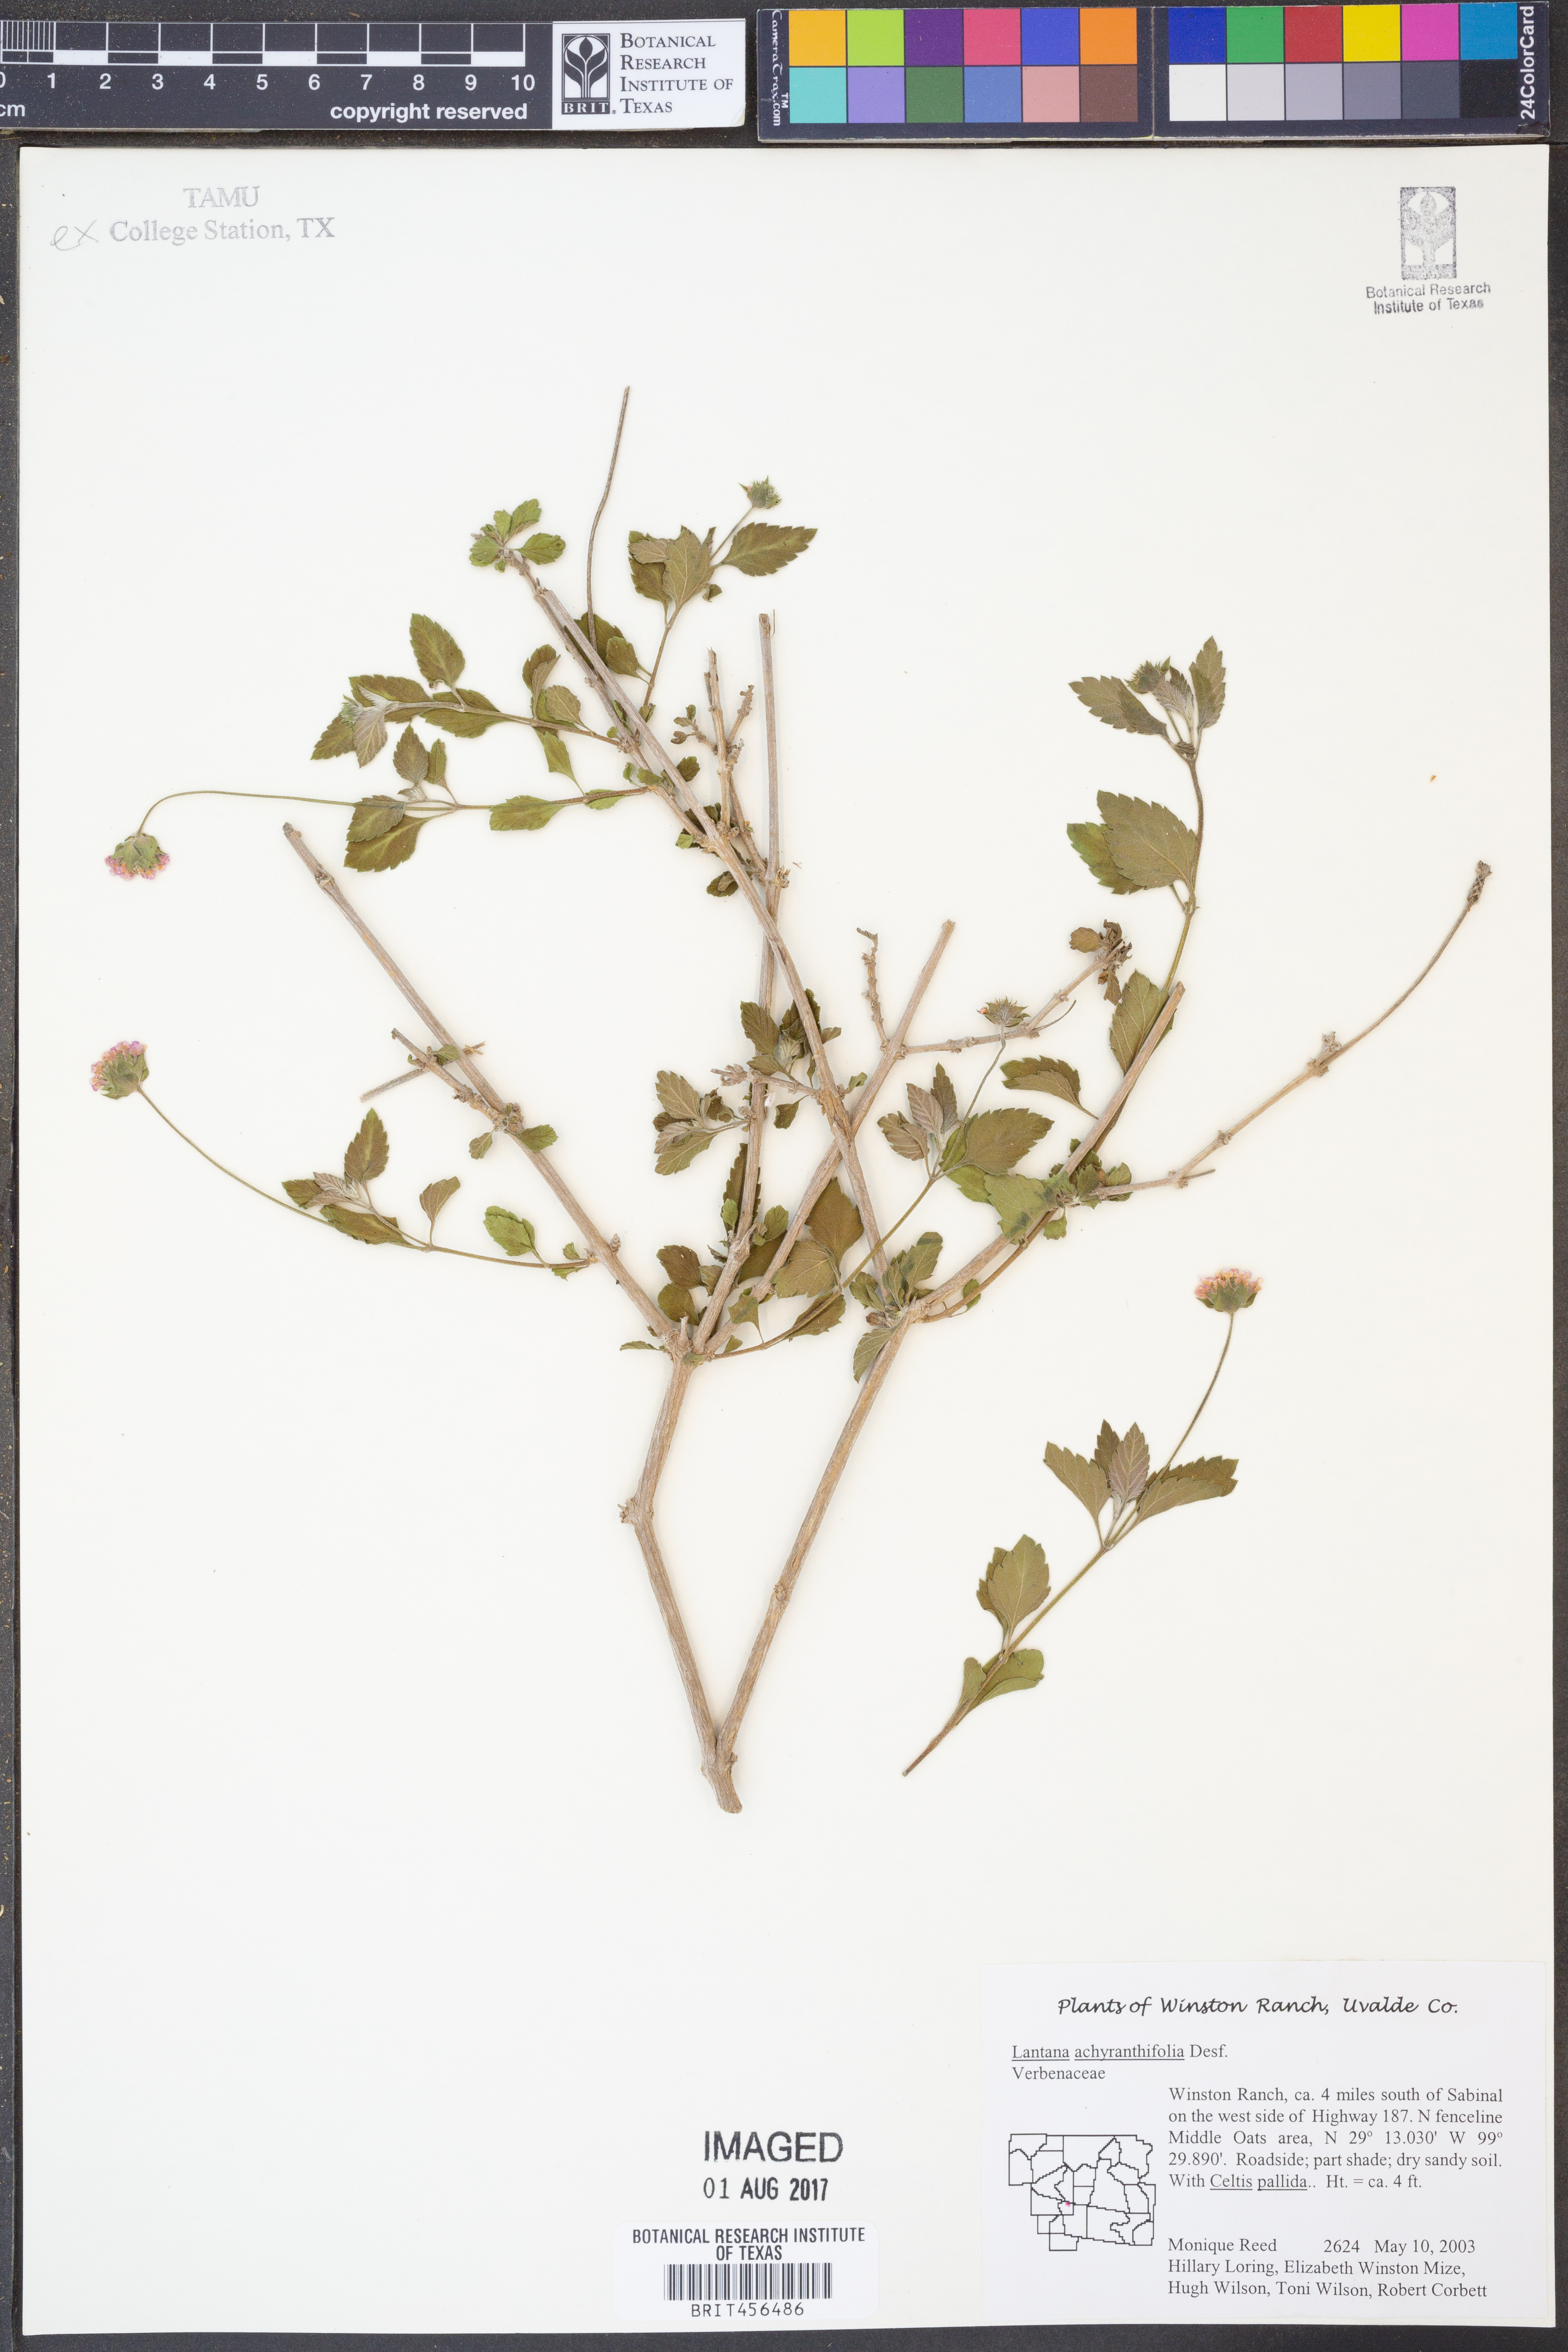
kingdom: Plantae
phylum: Tracheophyta
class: Magnoliopsida
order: Lamiales
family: Verbenaceae
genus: Lantana
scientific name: Lantana achyranthifolia
